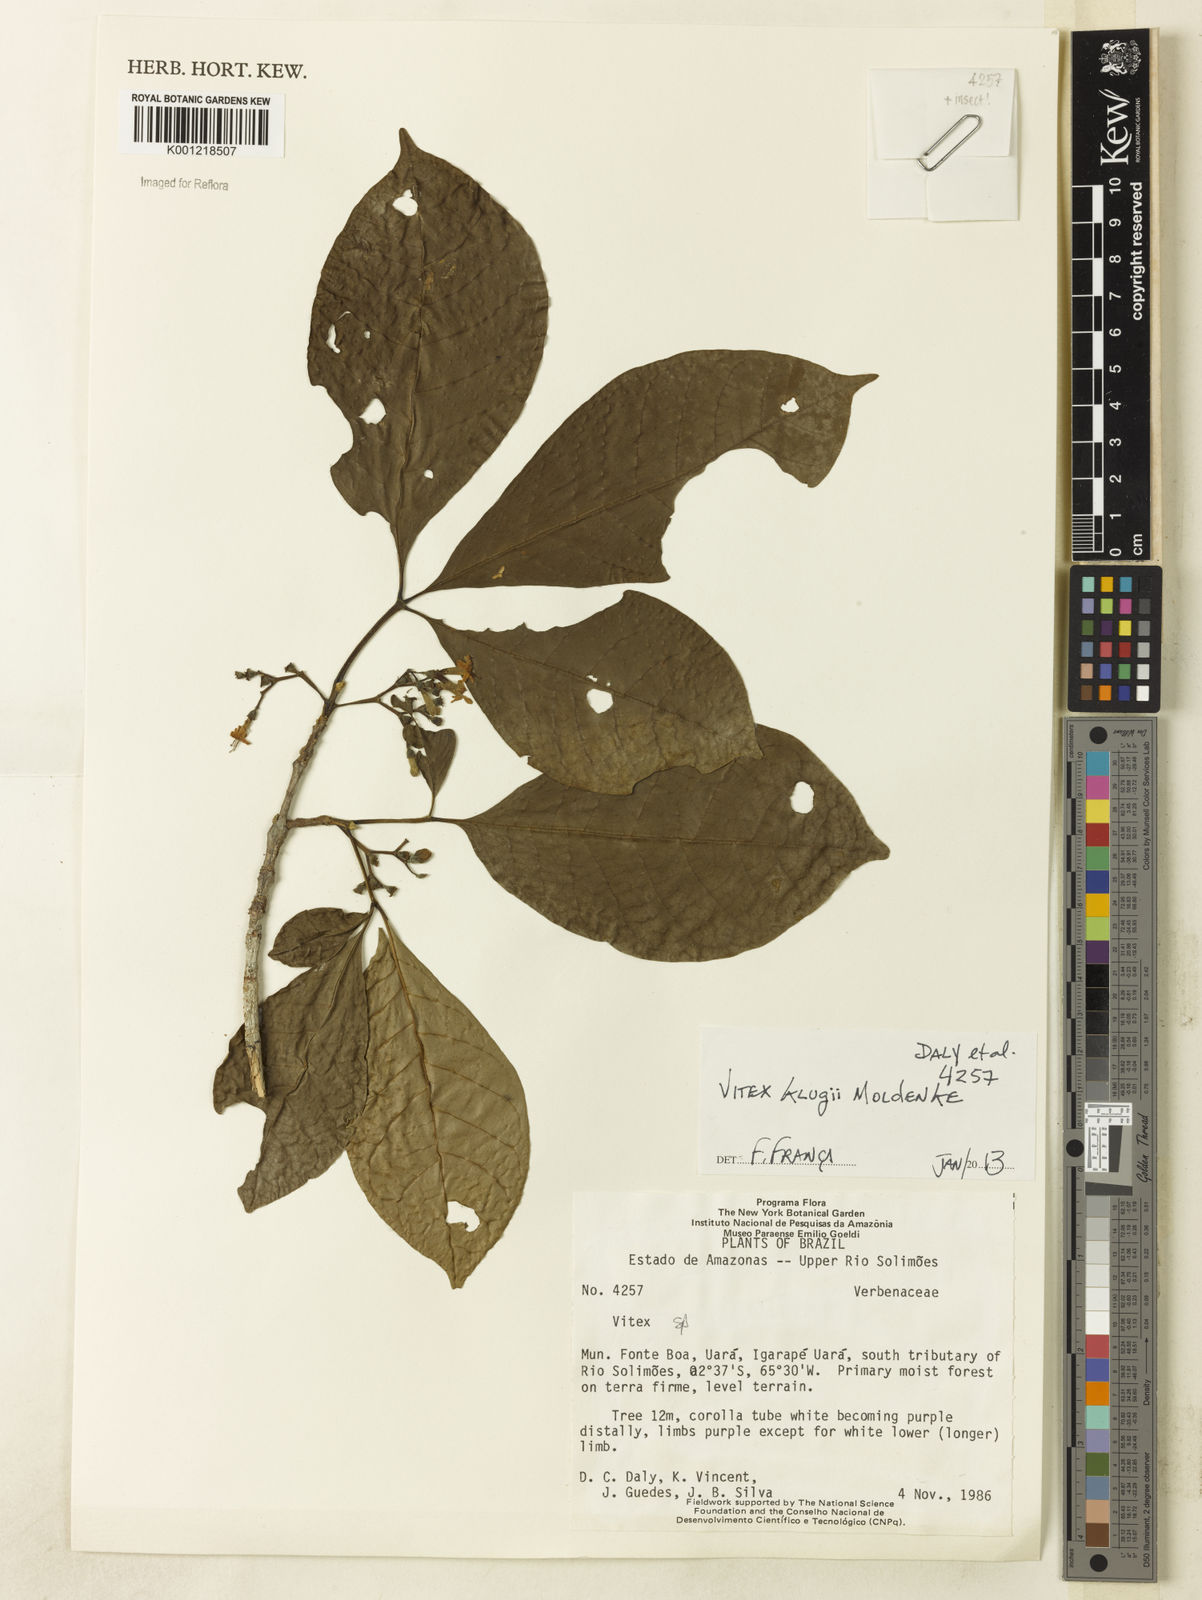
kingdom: Plantae
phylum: Tracheophyta
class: Magnoliopsida
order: Lamiales
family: Lamiaceae
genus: Vitex
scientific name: Vitex klugii
